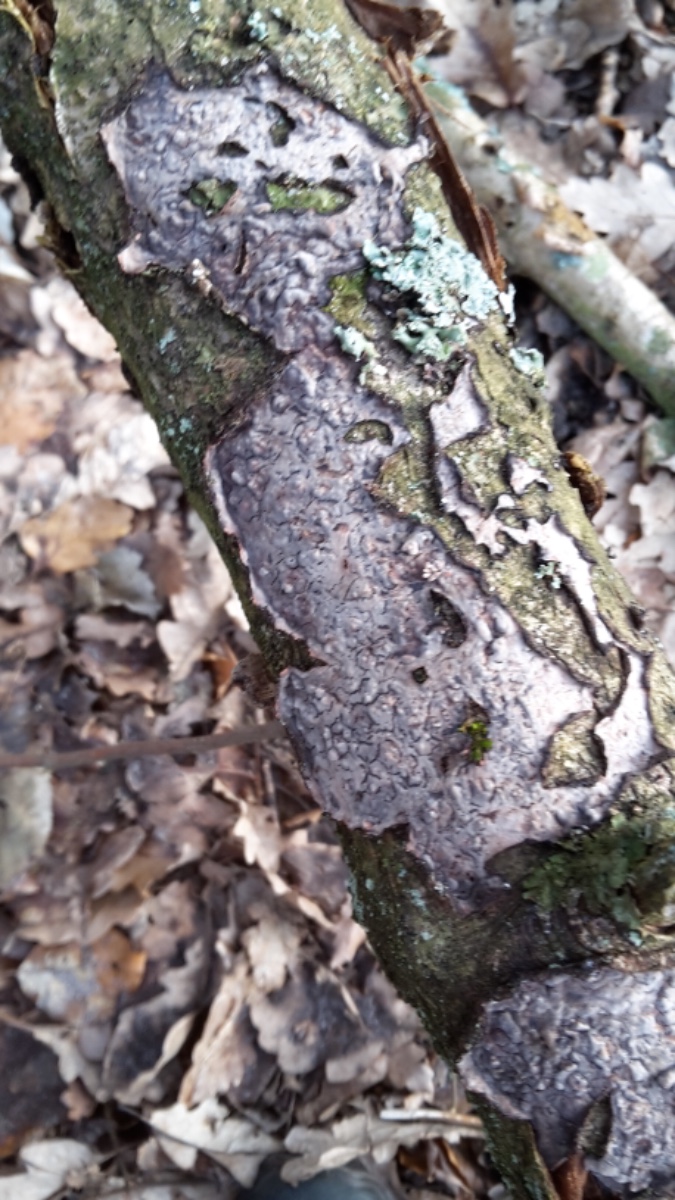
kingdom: Fungi
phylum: Basidiomycota
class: Agaricomycetes
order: Russulales
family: Peniophoraceae
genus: Peniophora
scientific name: Peniophora quercina
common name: ege-voksskind
